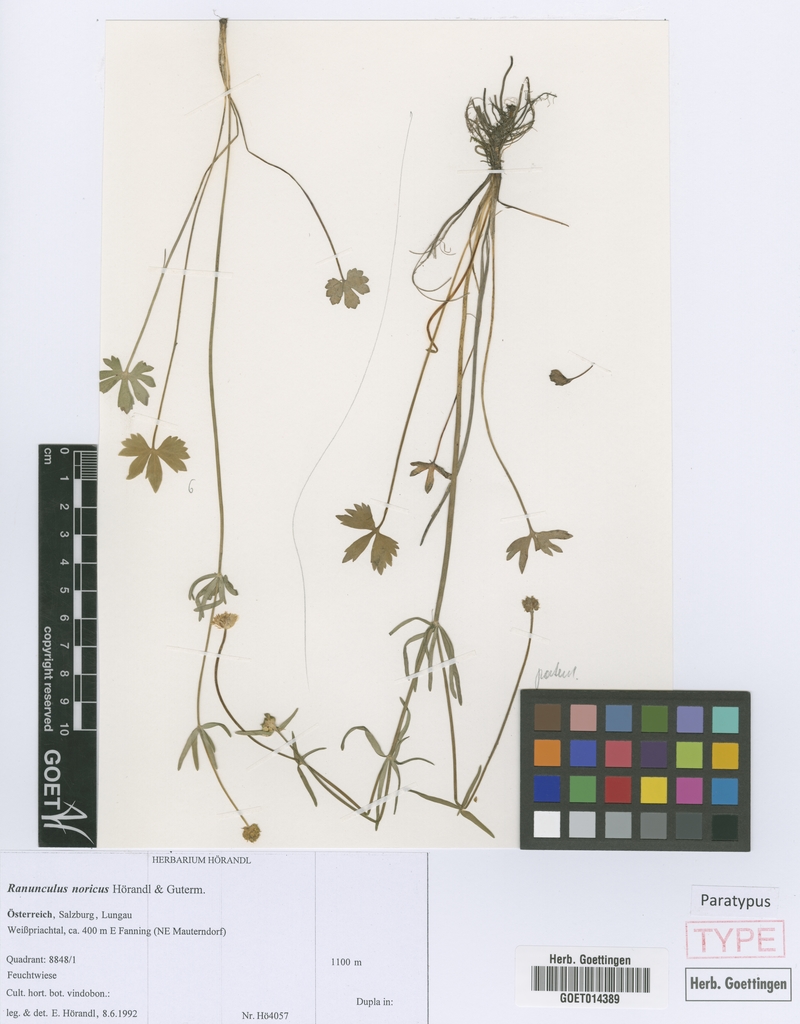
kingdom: Plantae
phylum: Tracheophyta
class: Magnoliopsida
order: Ranunculales
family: Ranunculaceae
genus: Ranunculus
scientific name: Ranunculus noricus
